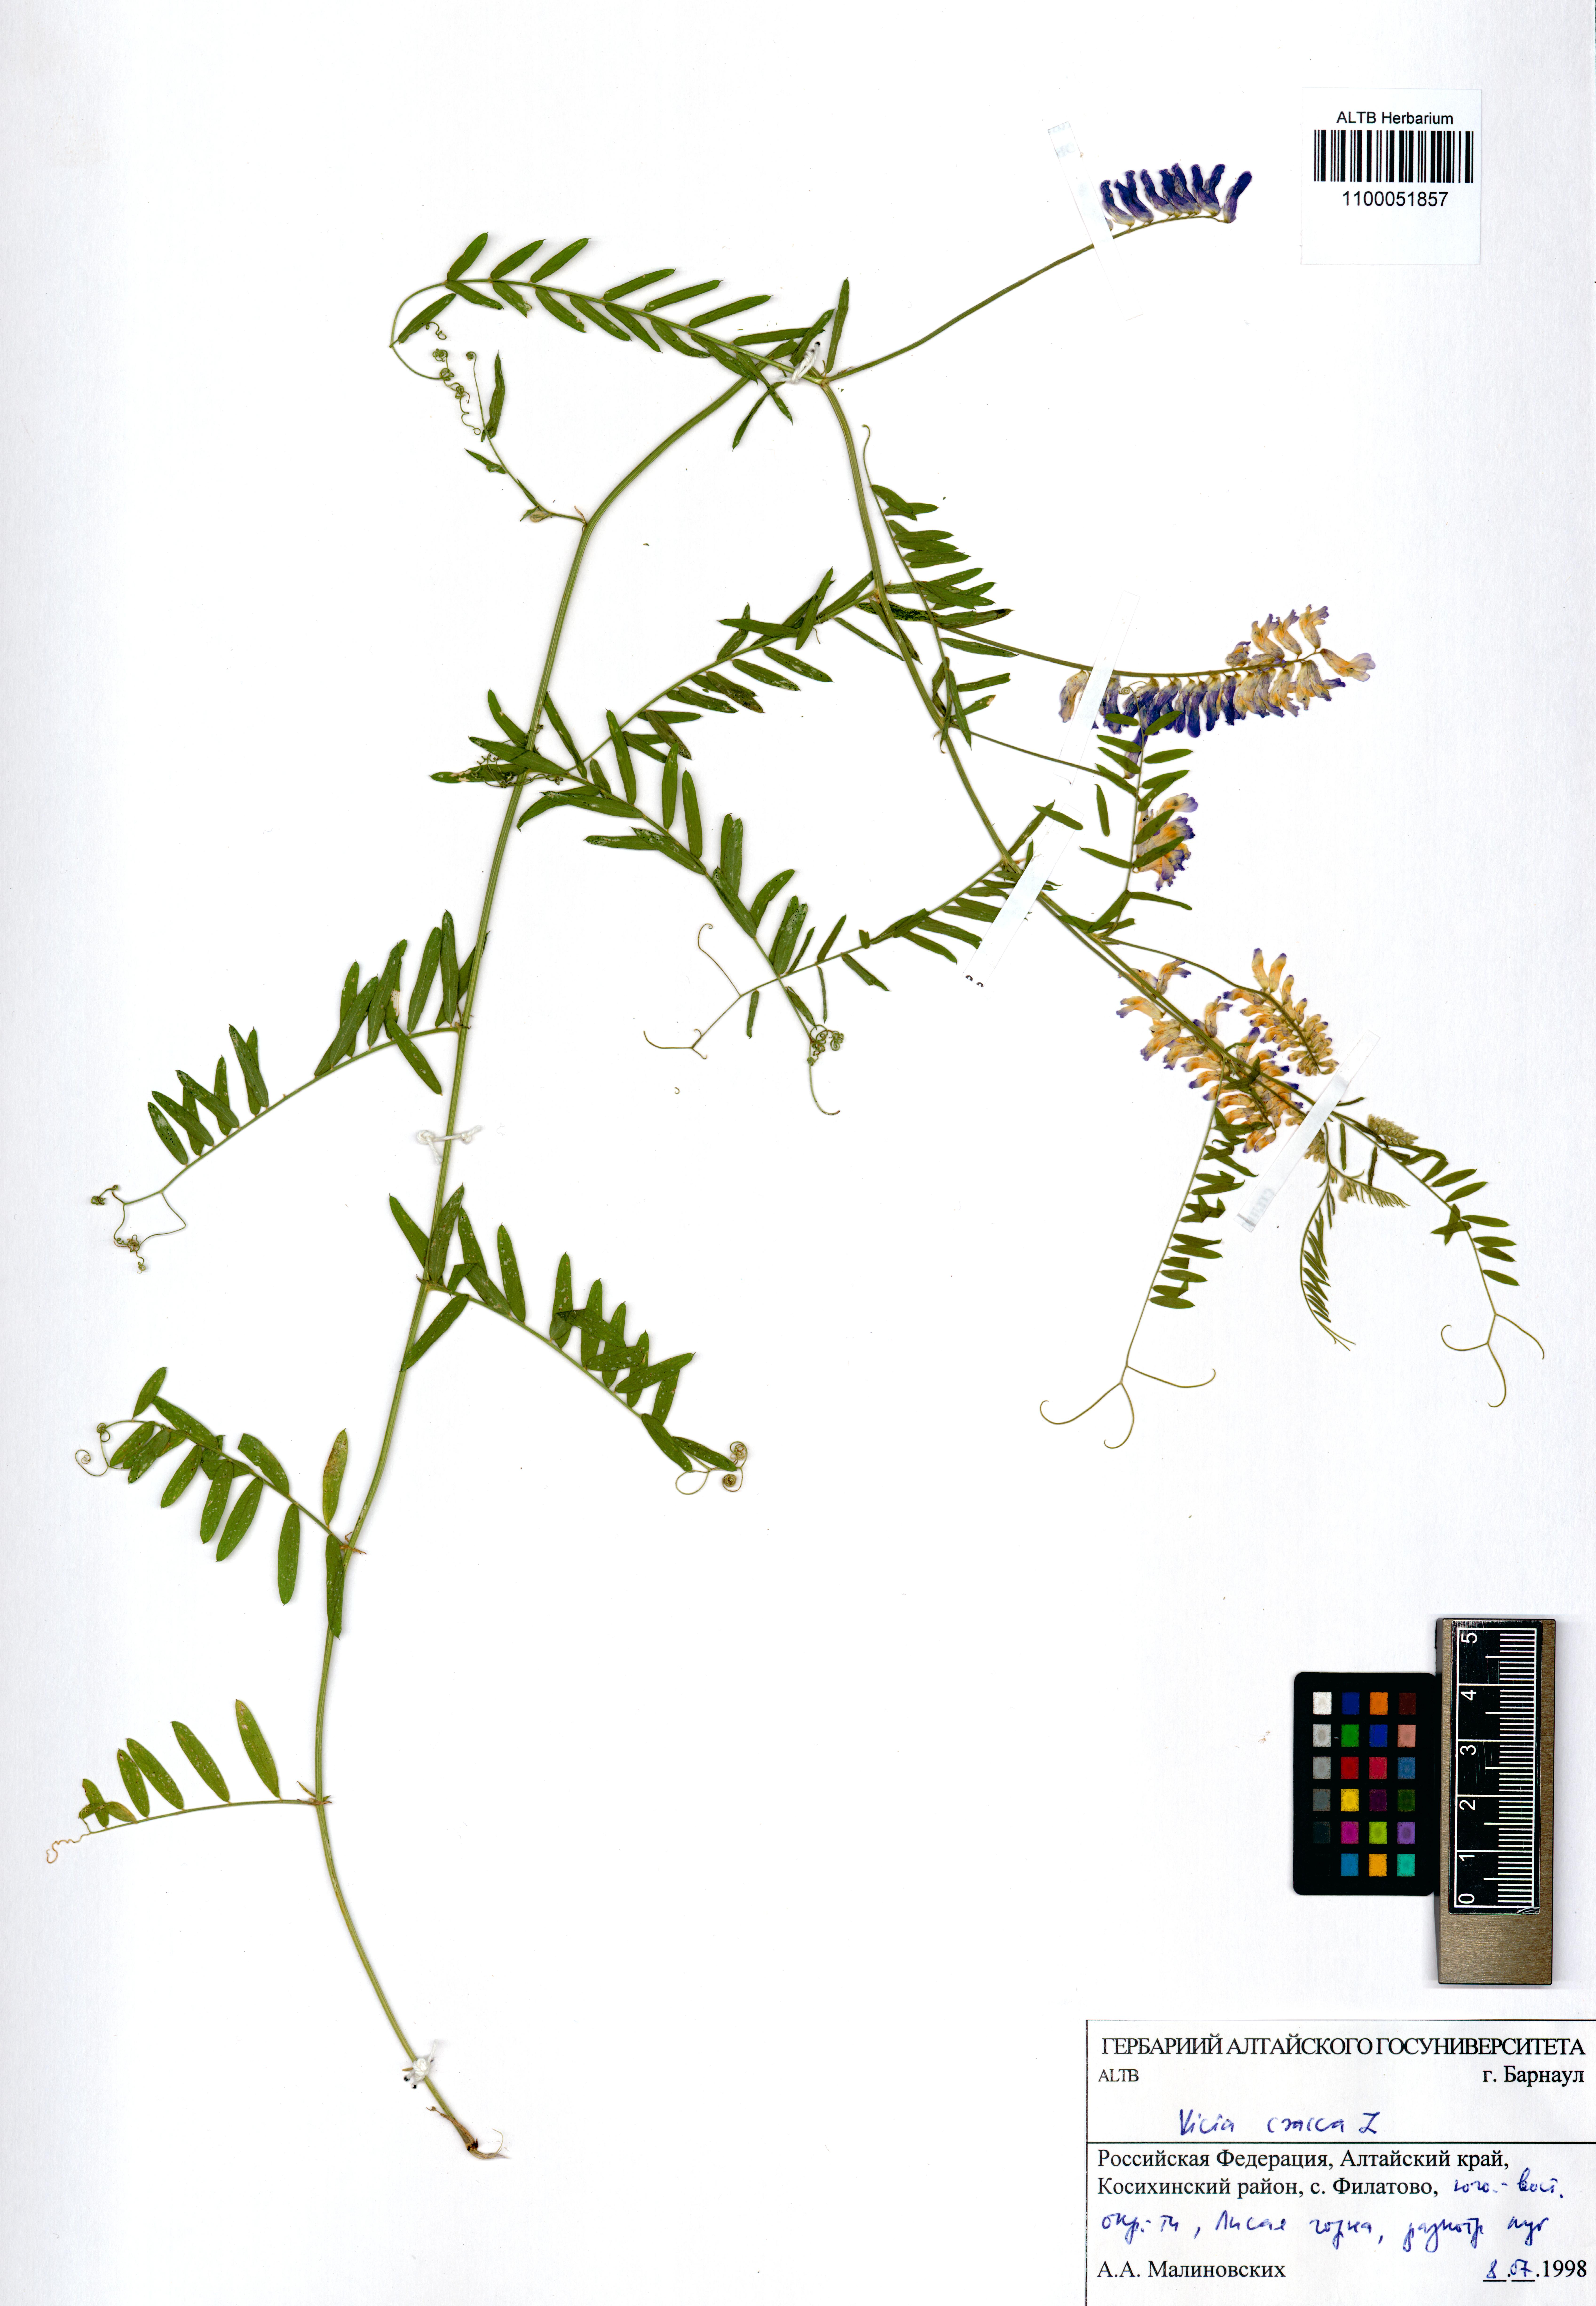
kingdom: Plantae
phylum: Tracheophyta
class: Magnoliopsida
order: Fabales
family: Fabaceae
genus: Vicia
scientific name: Vicia cracca
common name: Bird vetch
